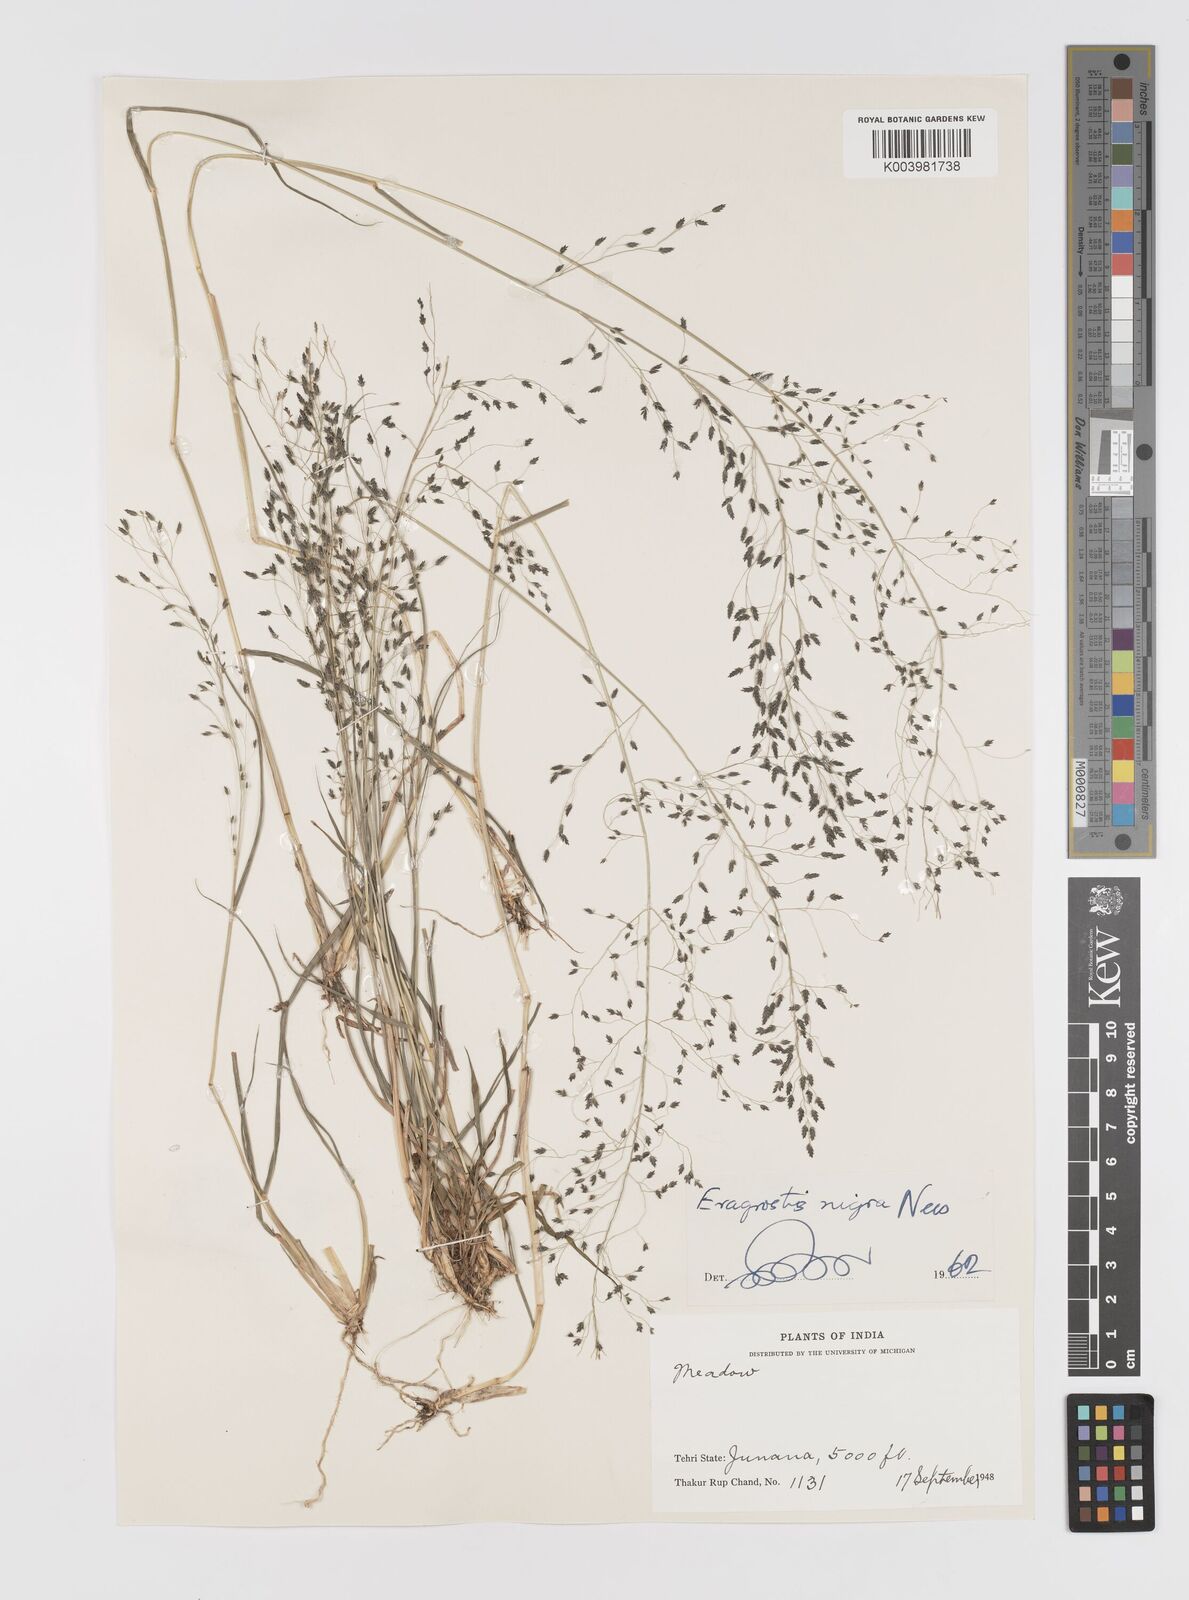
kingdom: Plantae
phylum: Tracheophyta
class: Liliopsida
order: Poales
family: Poaceae
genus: Eragrostis
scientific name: Eragrostis nigra
